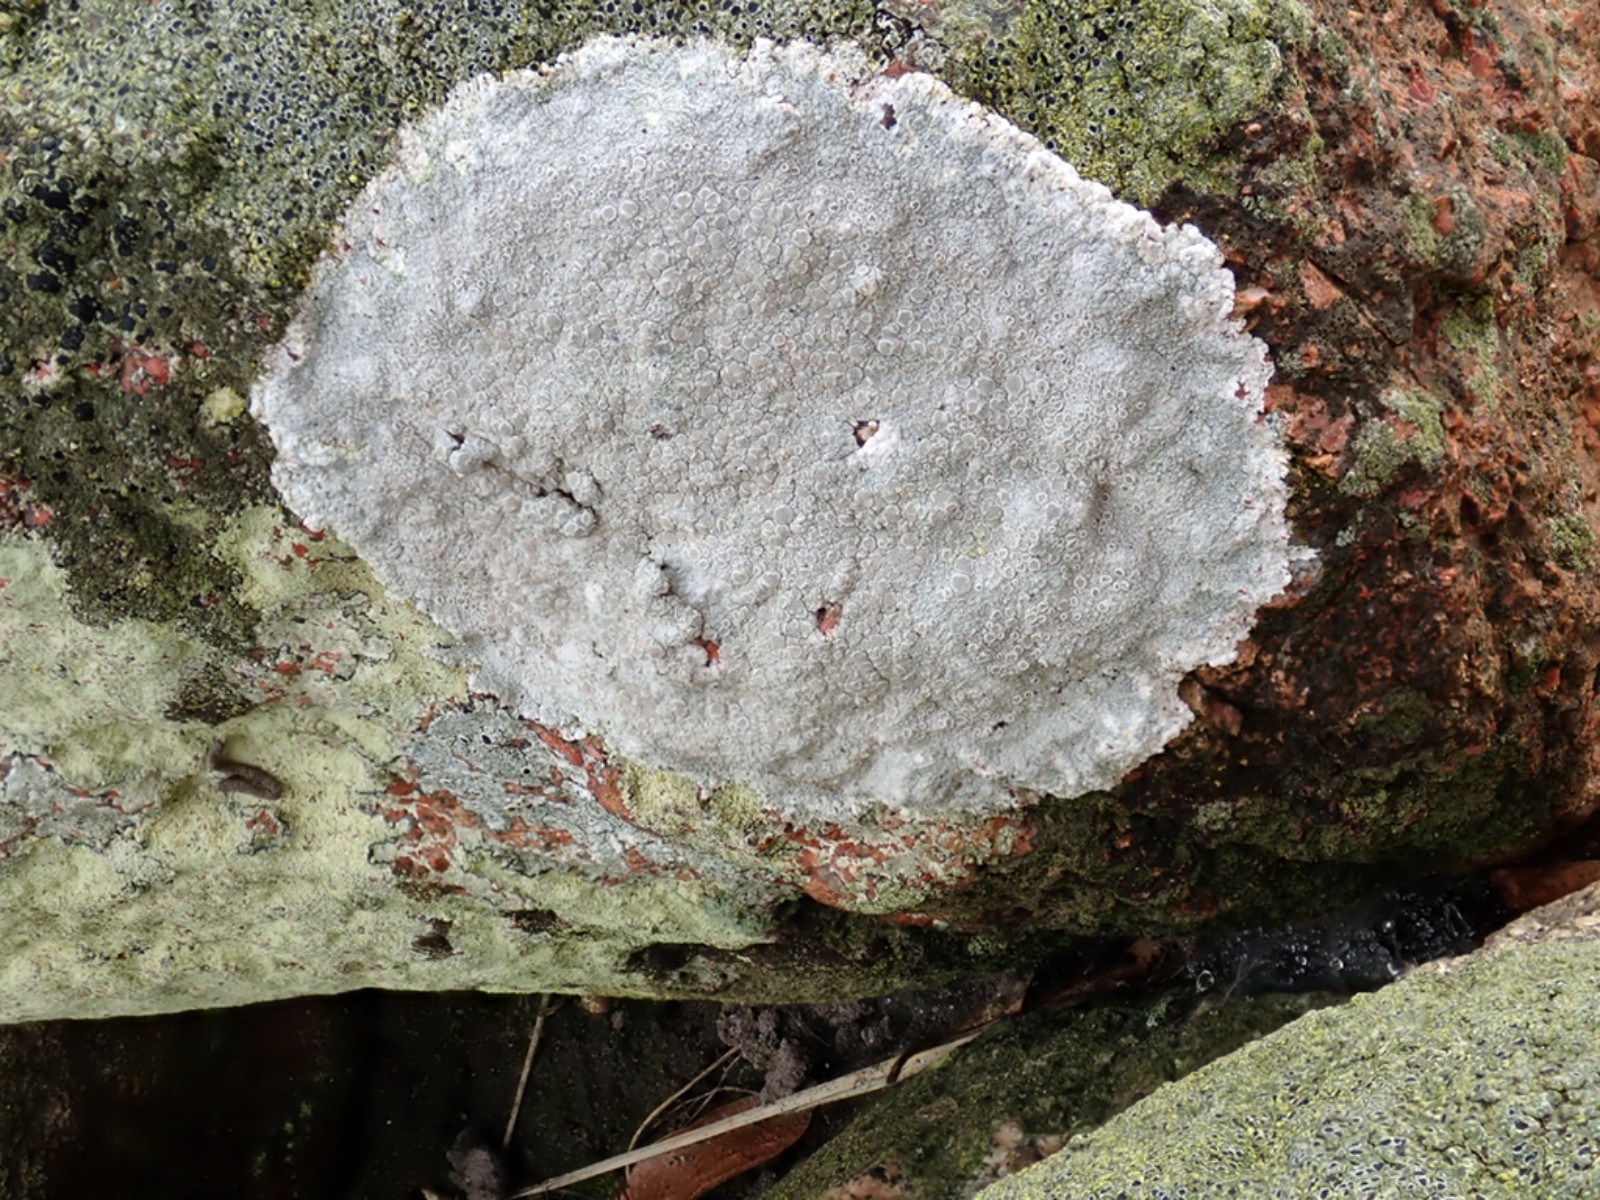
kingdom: Fungi
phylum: Ascomycota
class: Lecanoromycetes
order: Lecanorales
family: Lecanoraceae
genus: Glaucomaria
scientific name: Glaucomaria rupicola
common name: stengærde-kantskivelav
